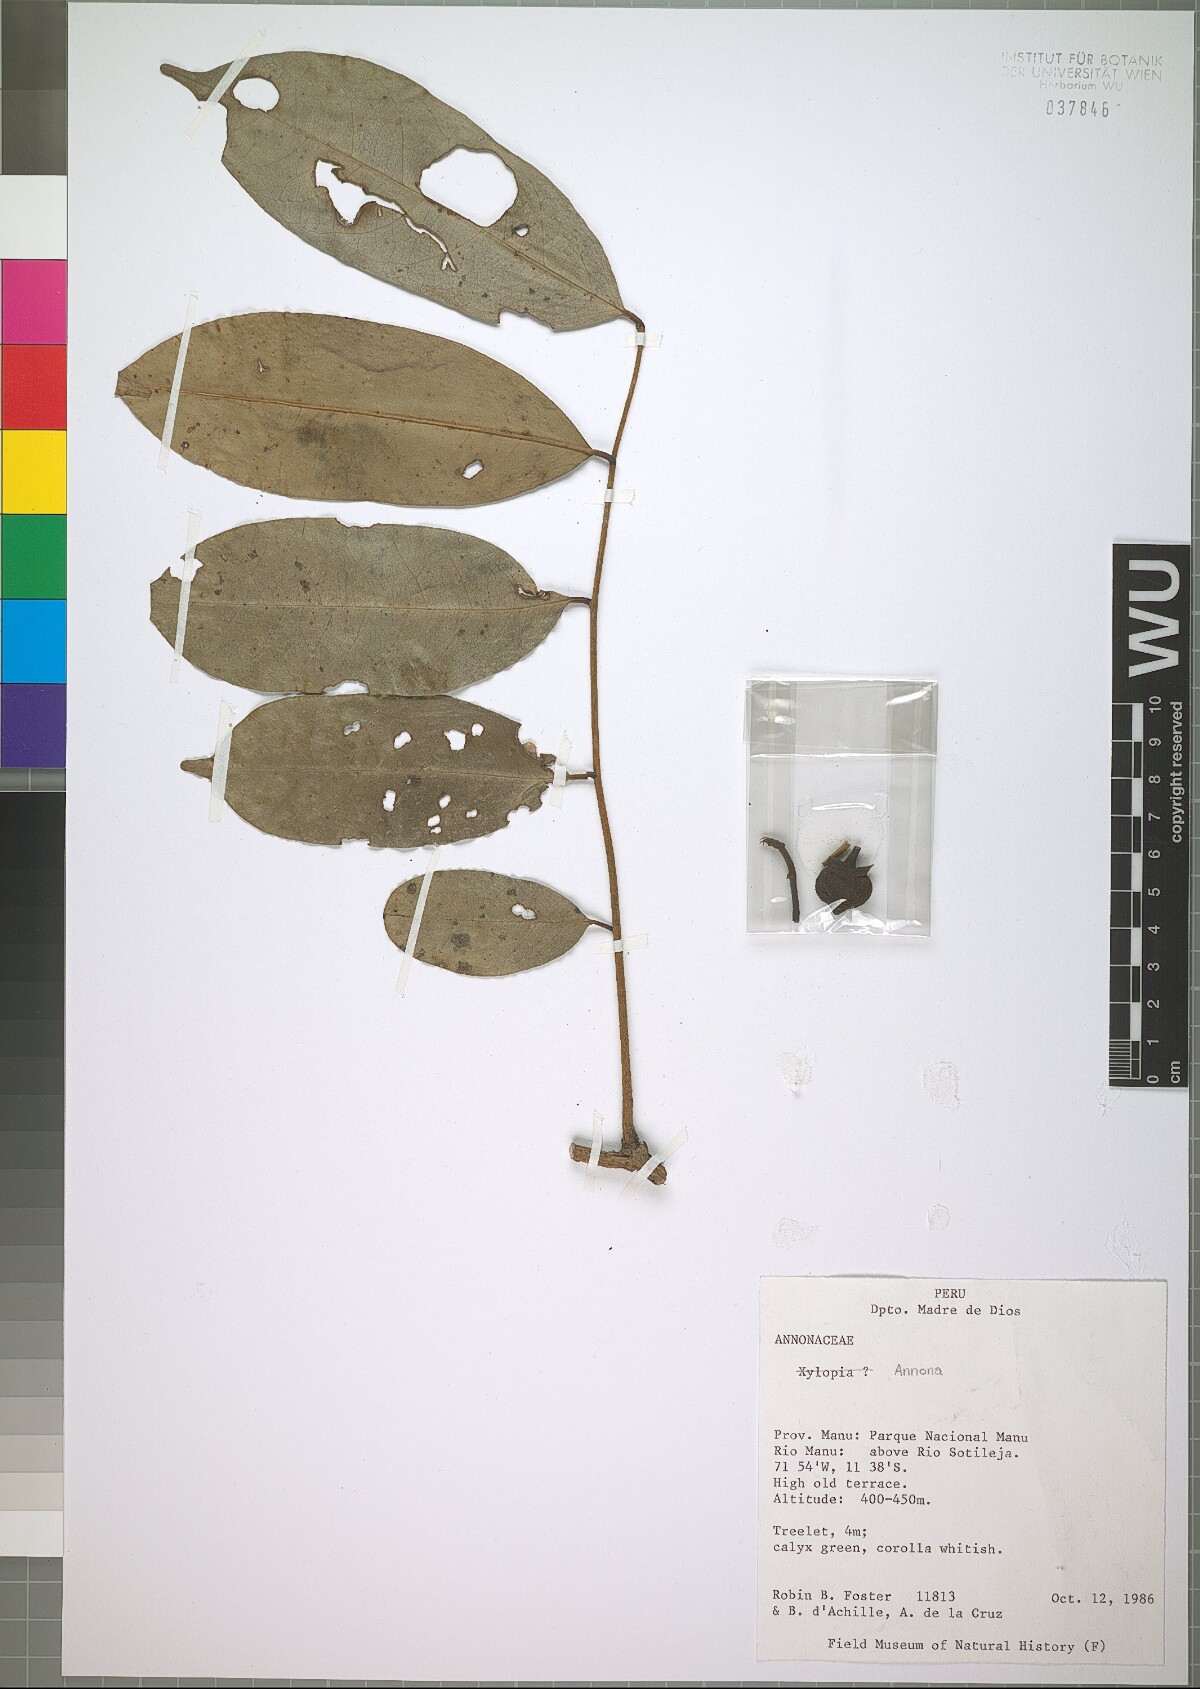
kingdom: Plantae
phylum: Tracheophyta
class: Magnoliopsida
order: Magnoliales
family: Annonaceae
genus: Annona
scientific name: Annona montana
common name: Mountain soursop
